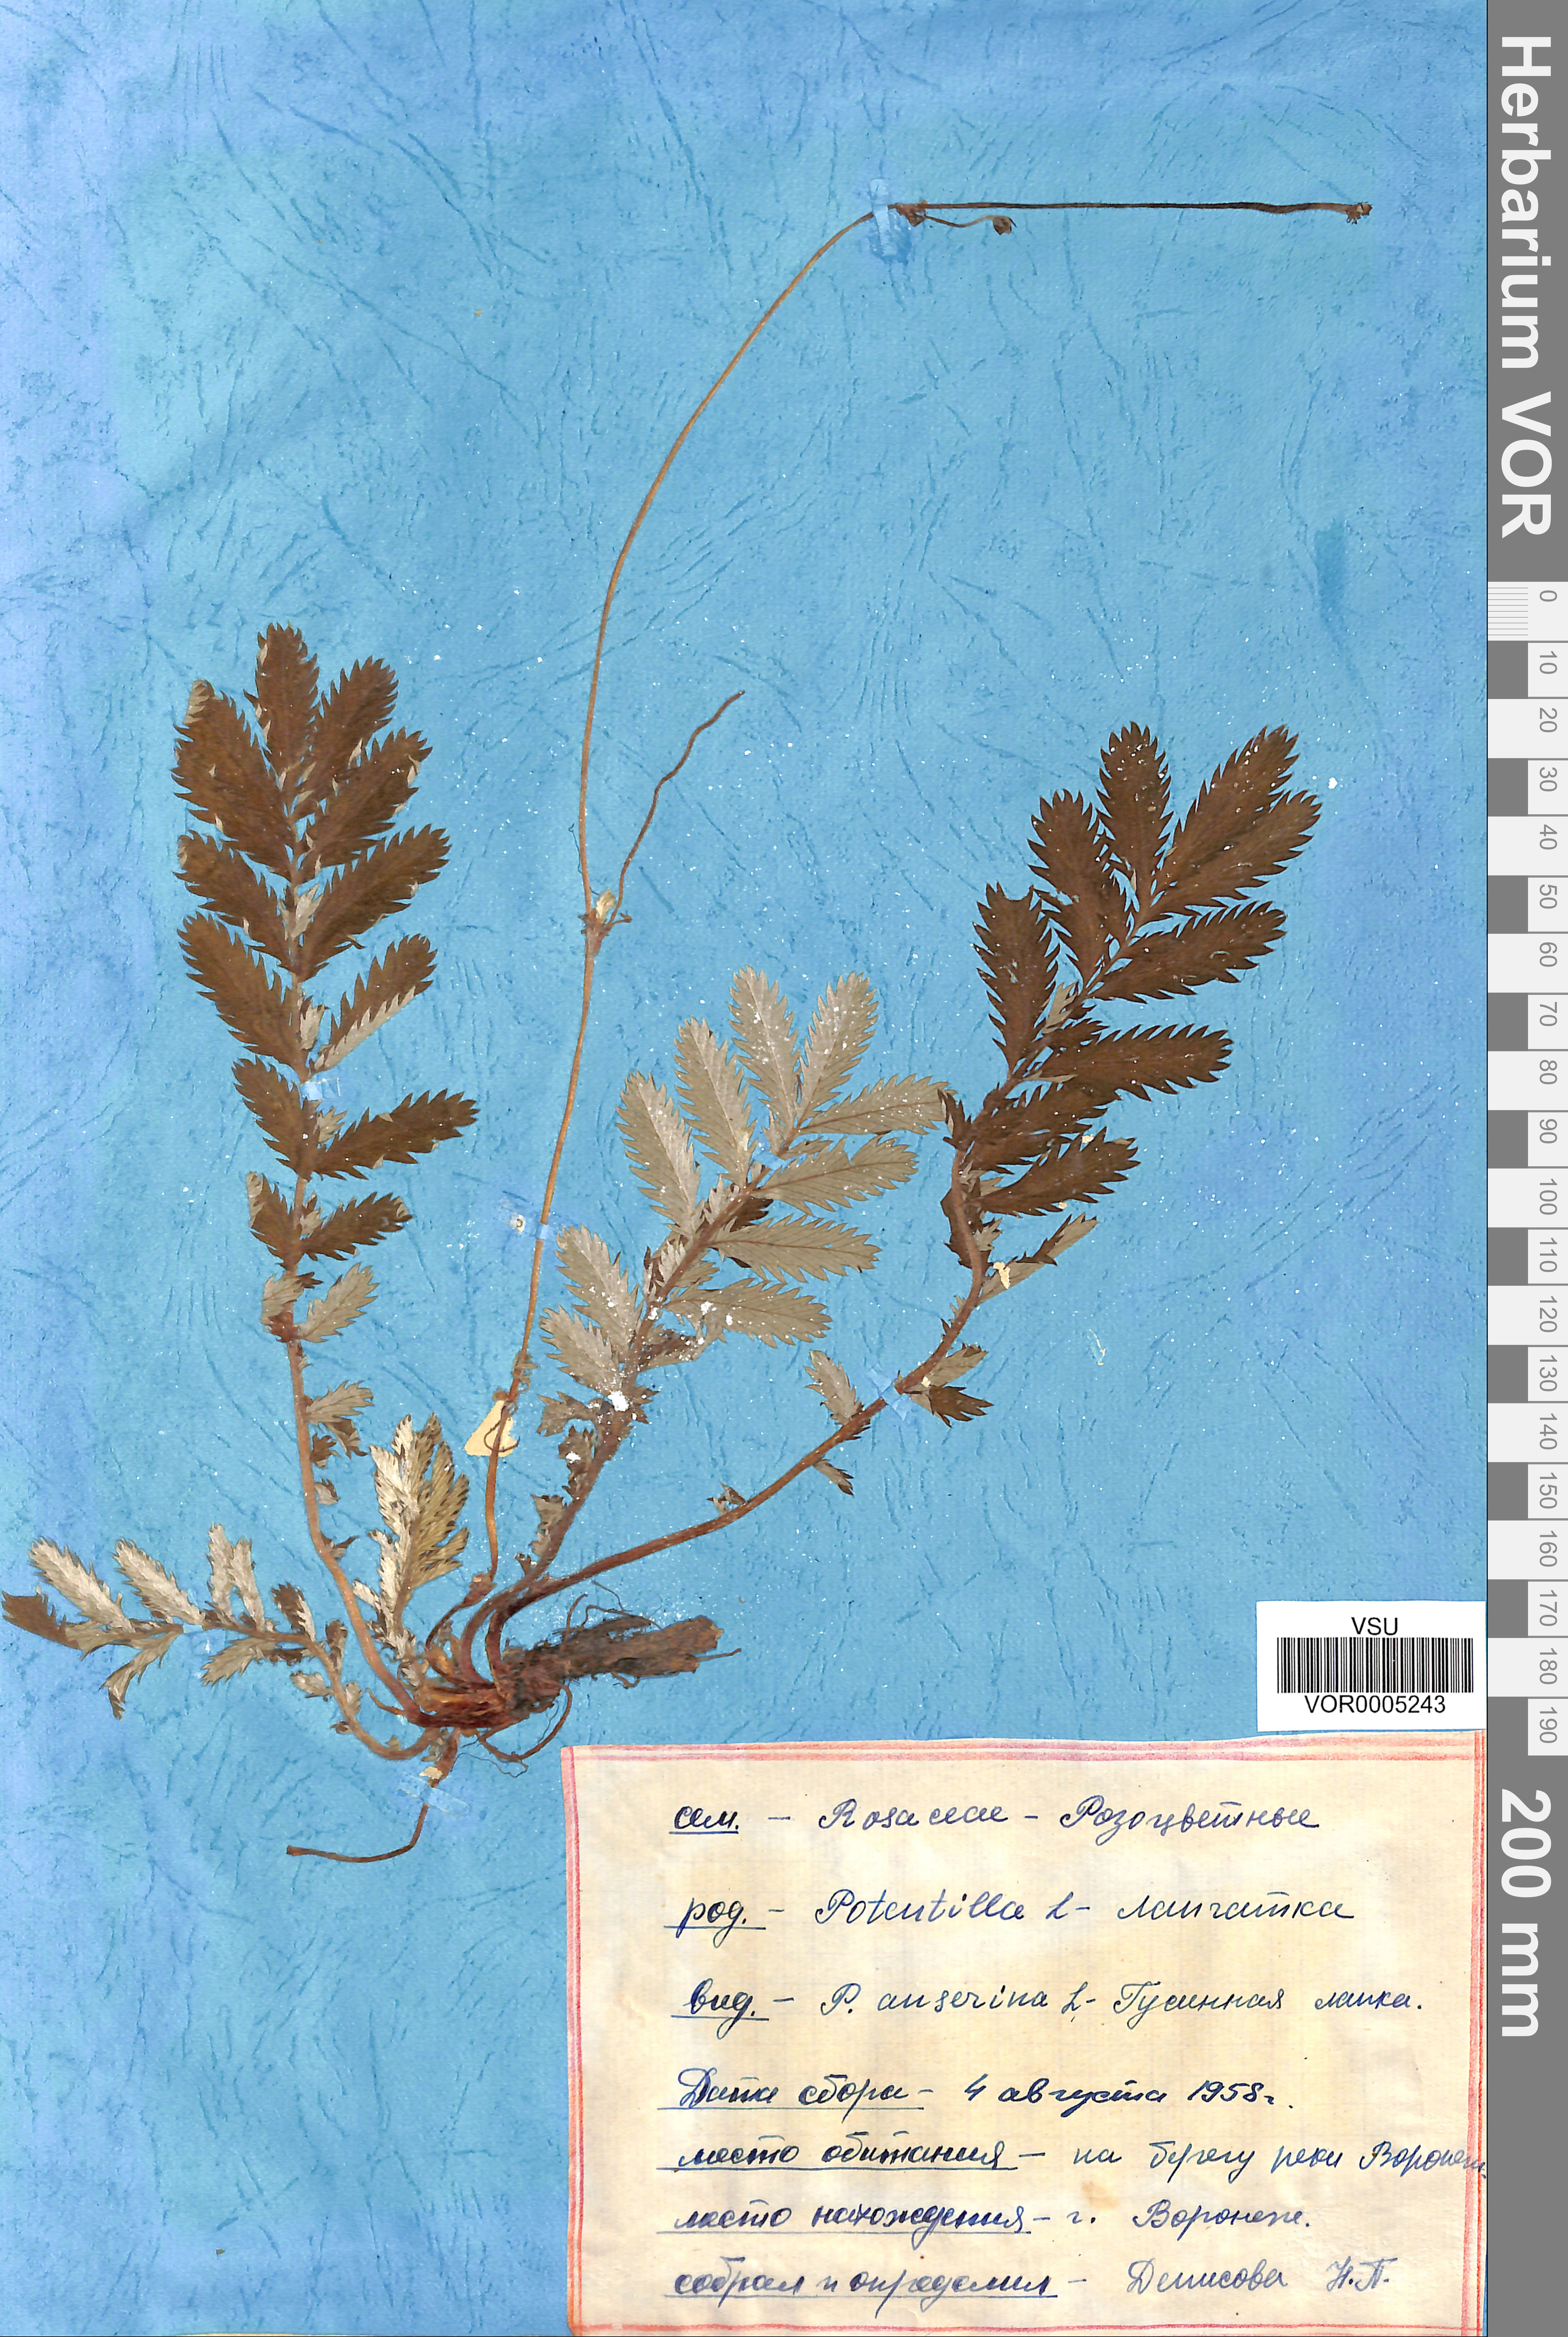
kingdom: Plantae
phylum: Tracheophyta
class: Magnoliopsida
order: Rosales
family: Rosaceae
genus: Argentina
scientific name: Argentina anserina
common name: Common silverweed
